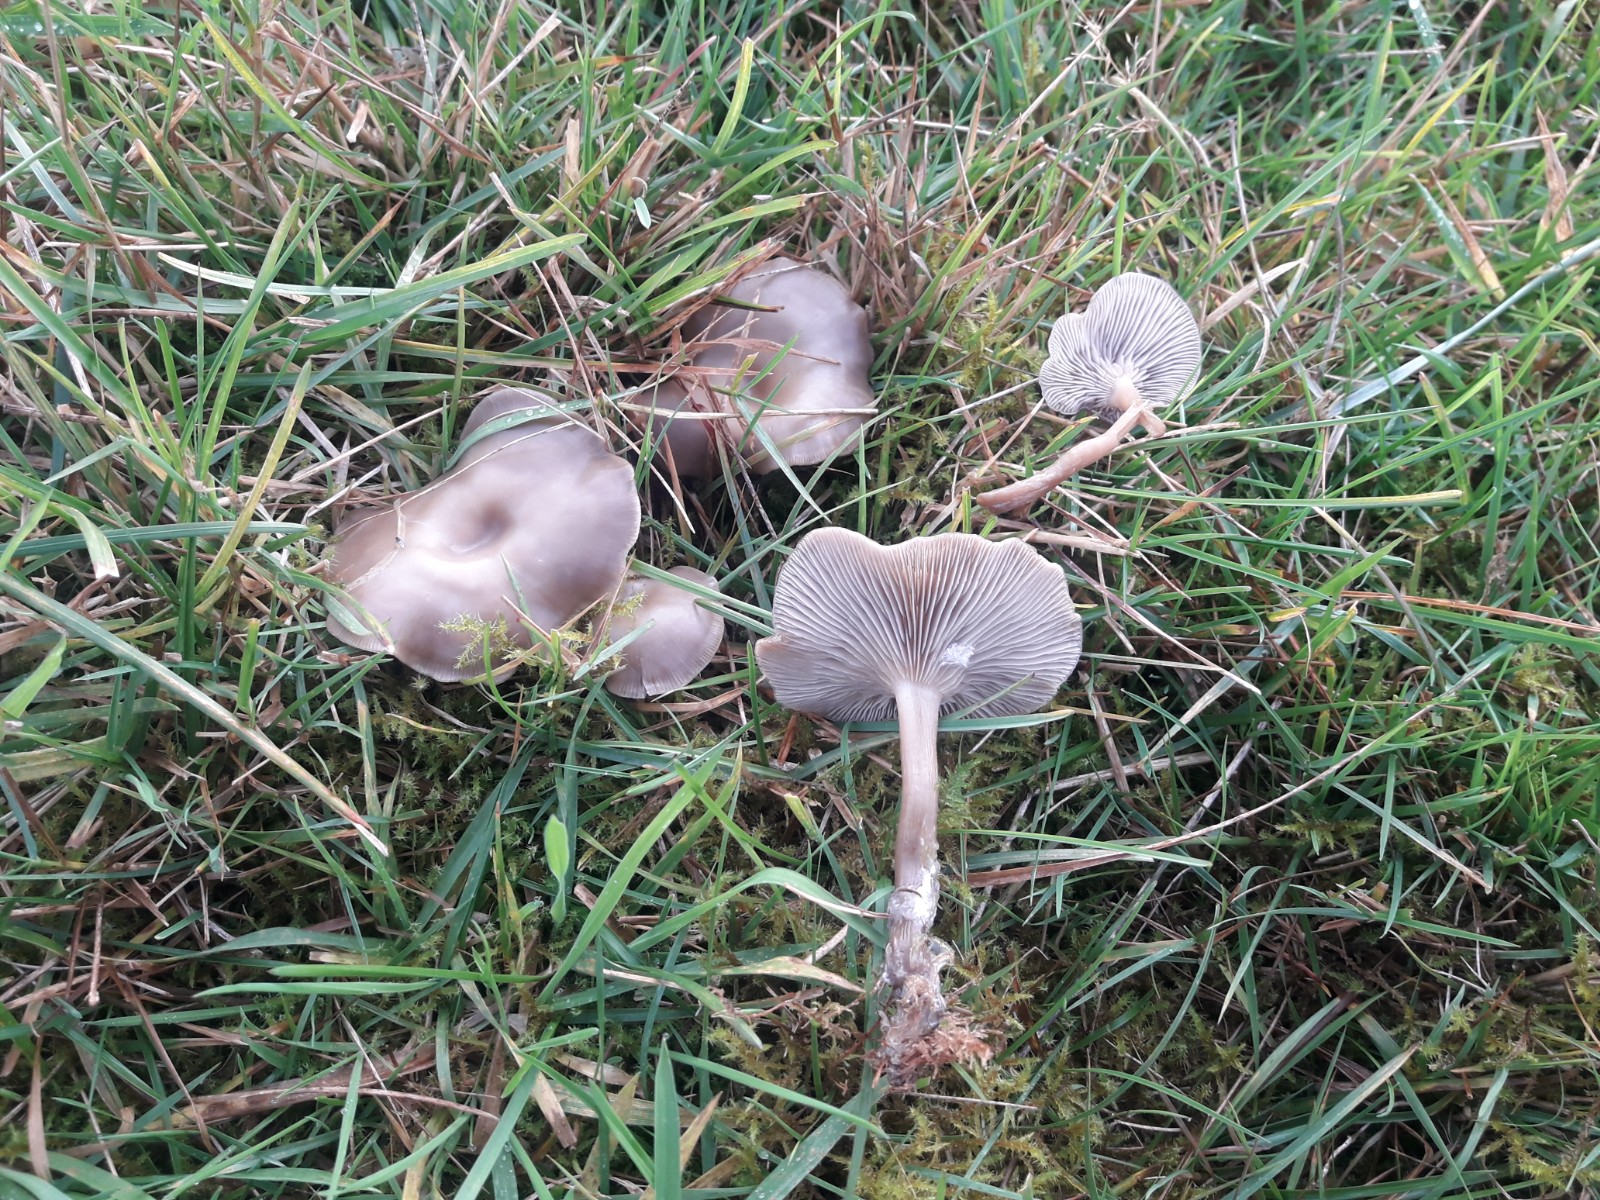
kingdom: Fungi
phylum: Basidiomycota
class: Agaricomycetes
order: Agaricales
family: Tricholomataceae
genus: Clitocybe
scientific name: Clitocybe
